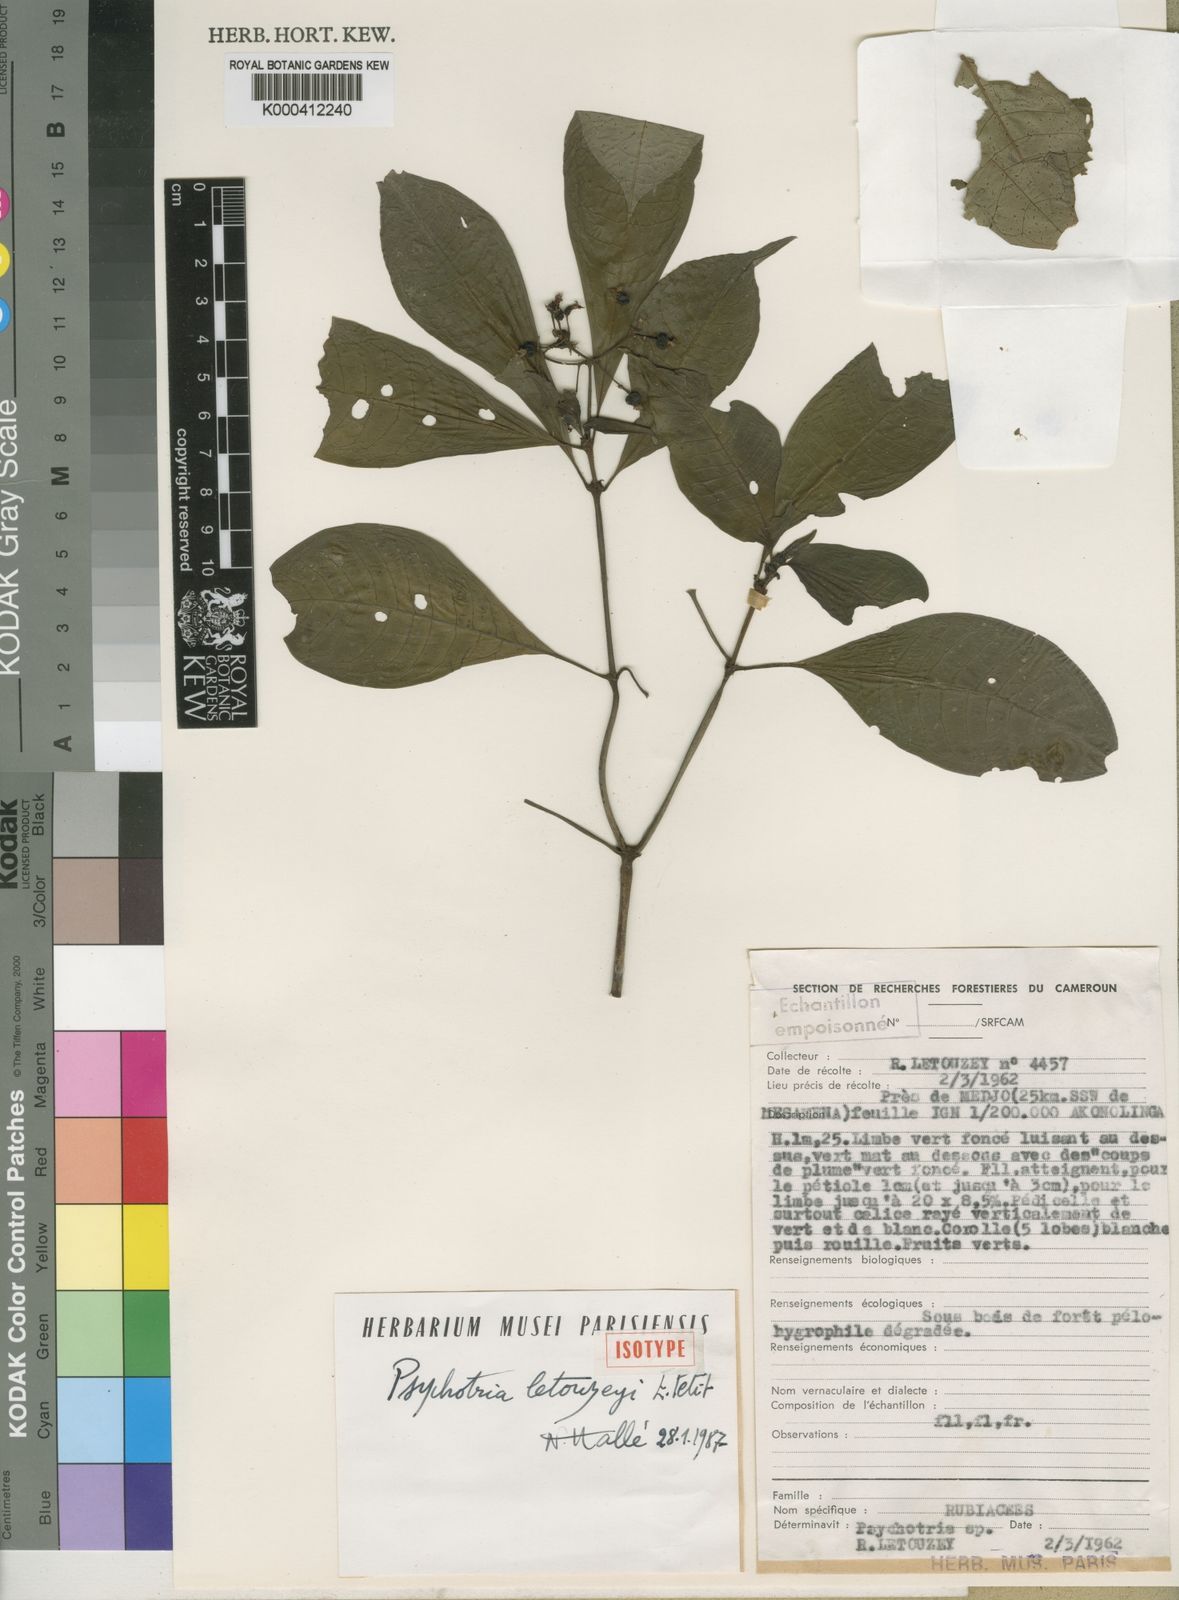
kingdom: Plantae
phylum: Tracheophyta
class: Magnoliopsida
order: Gentianales
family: Rubiaceae
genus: Psychotria
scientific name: Psychotria letouzeyi
